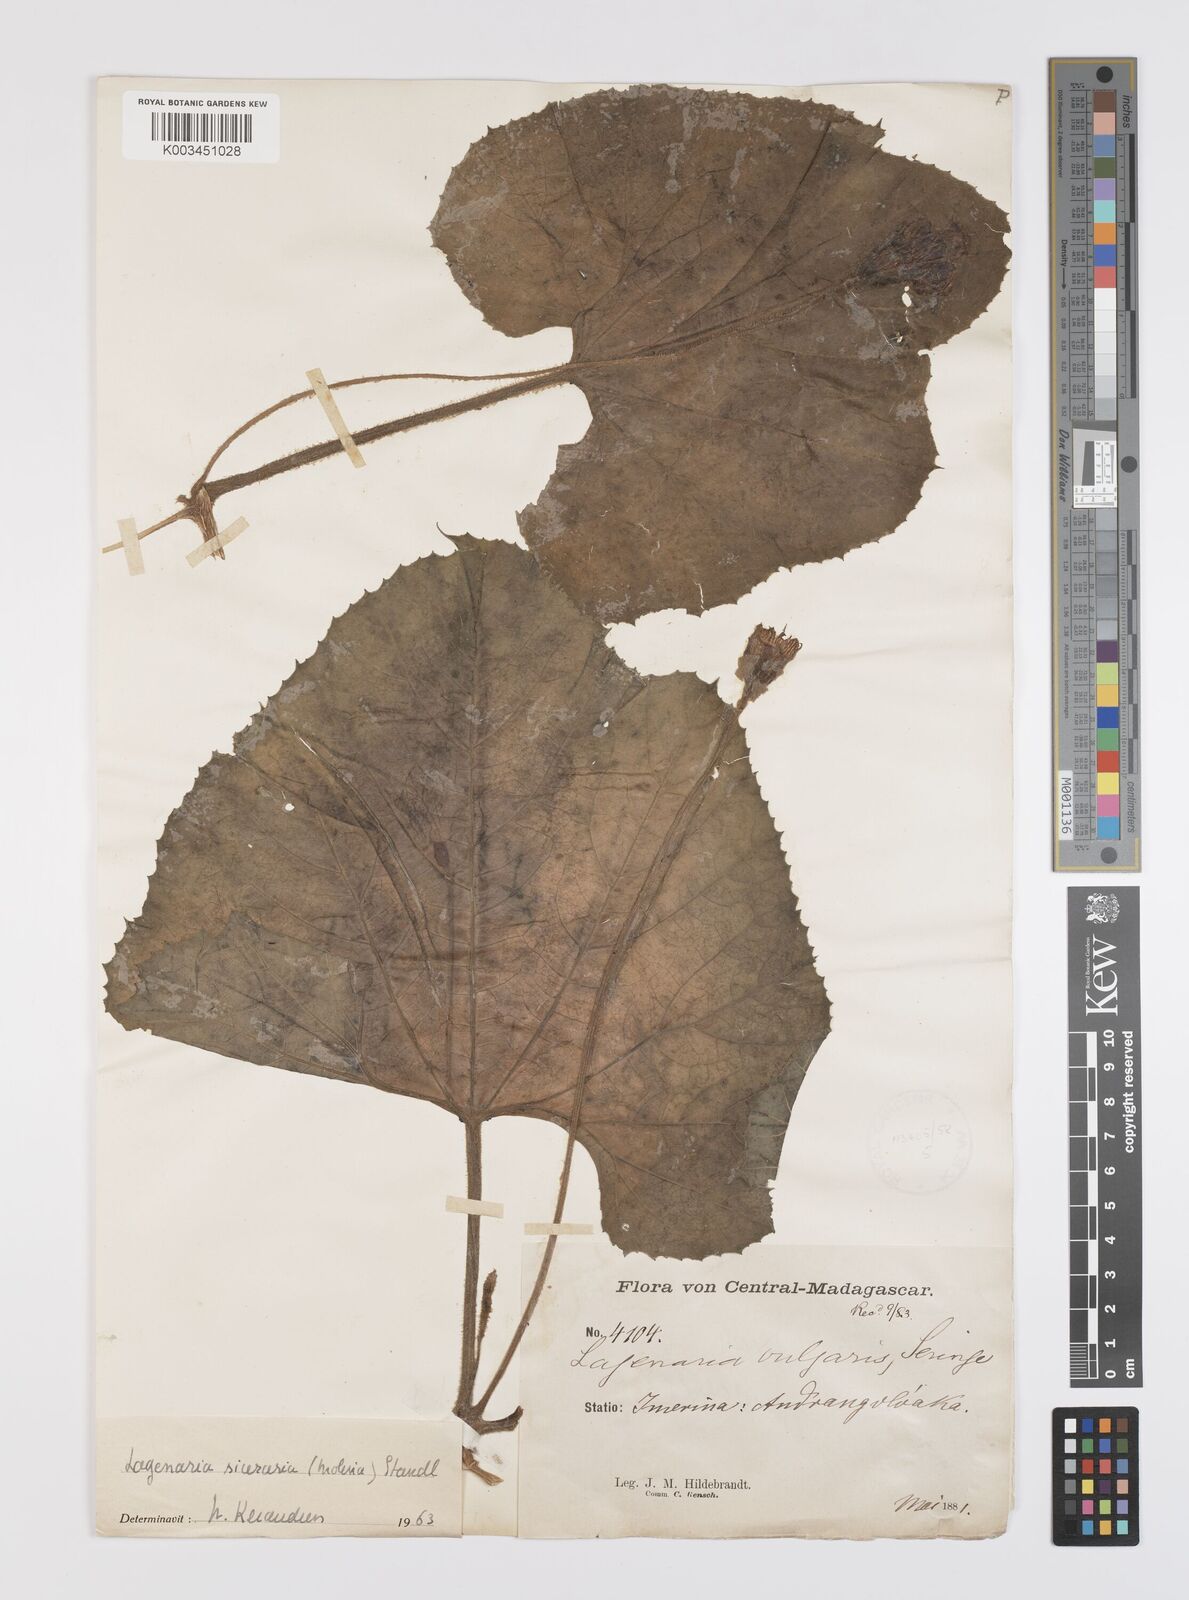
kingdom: Plantae
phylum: Tracheophyta
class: Magnoliopsida
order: Cucurbitales
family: Cucurbitaceae
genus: Lagenaria
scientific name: Lagenaria siceraria
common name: Bottle gourd
